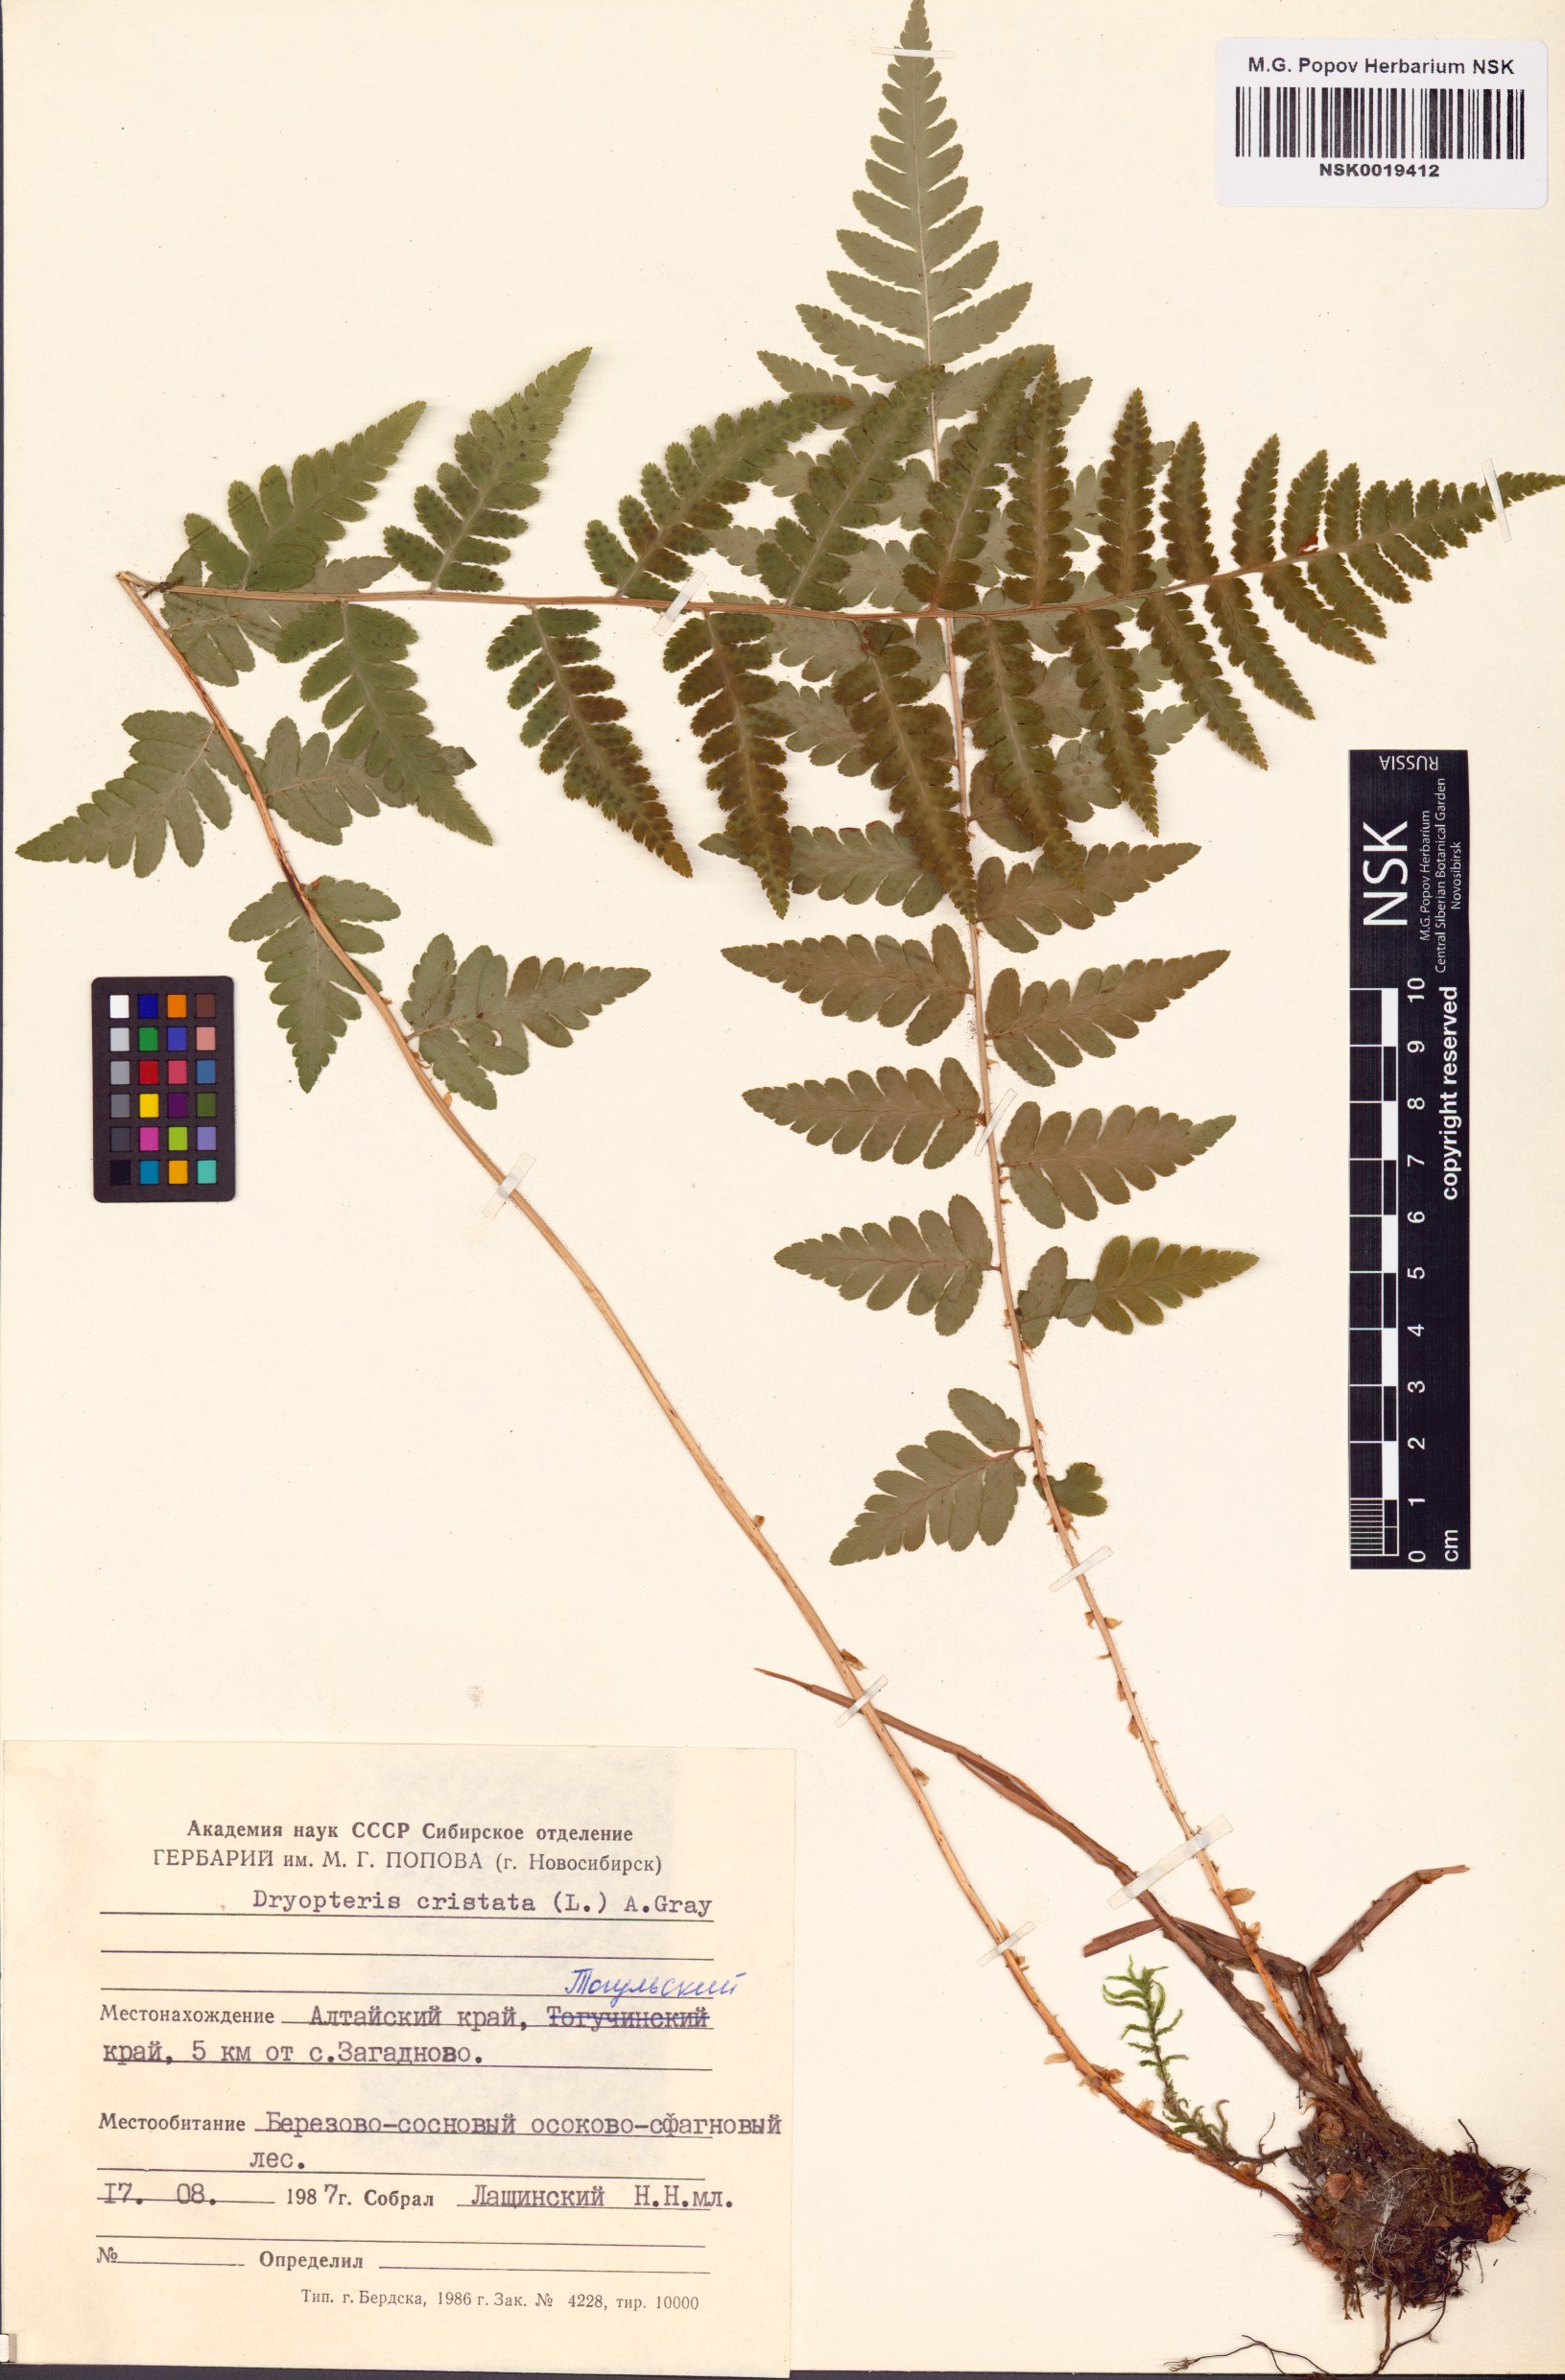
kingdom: Plantae
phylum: Tracheophyta
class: Polypodiopsida
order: Polypodiales
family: Dryopteridaceae
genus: Dryopteris
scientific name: Dryopteris cristata
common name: Crested wood fern
